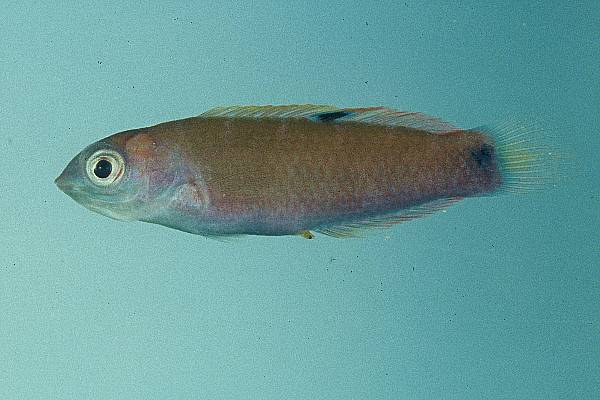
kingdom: Animalia
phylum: Chordata
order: Perciformes
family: Labridae
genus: Thalassoma
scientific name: Thalassoma lunare
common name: Blue wrasse
